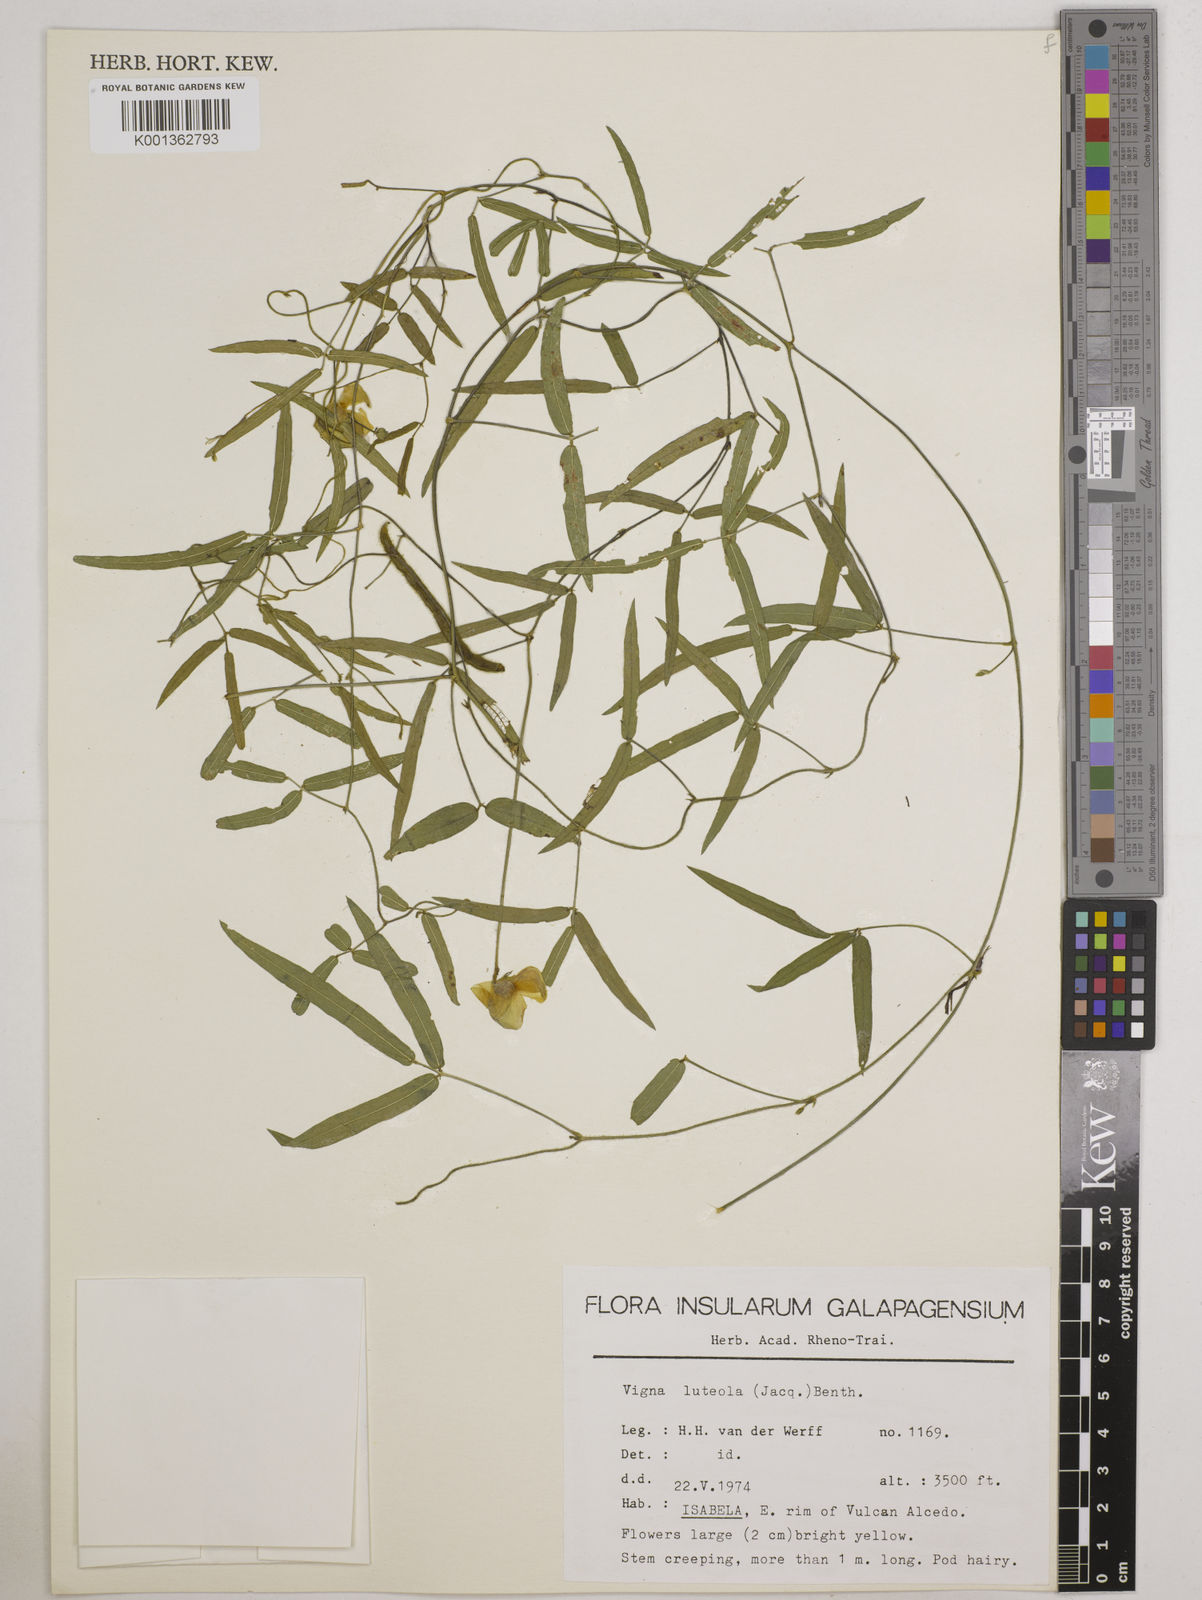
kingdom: Plantae
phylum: Tracheophyta
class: Magnoliopsida
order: Fabales
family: Fabaceae
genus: Vigna
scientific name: Vigna luteola
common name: Hairypod cowpea
